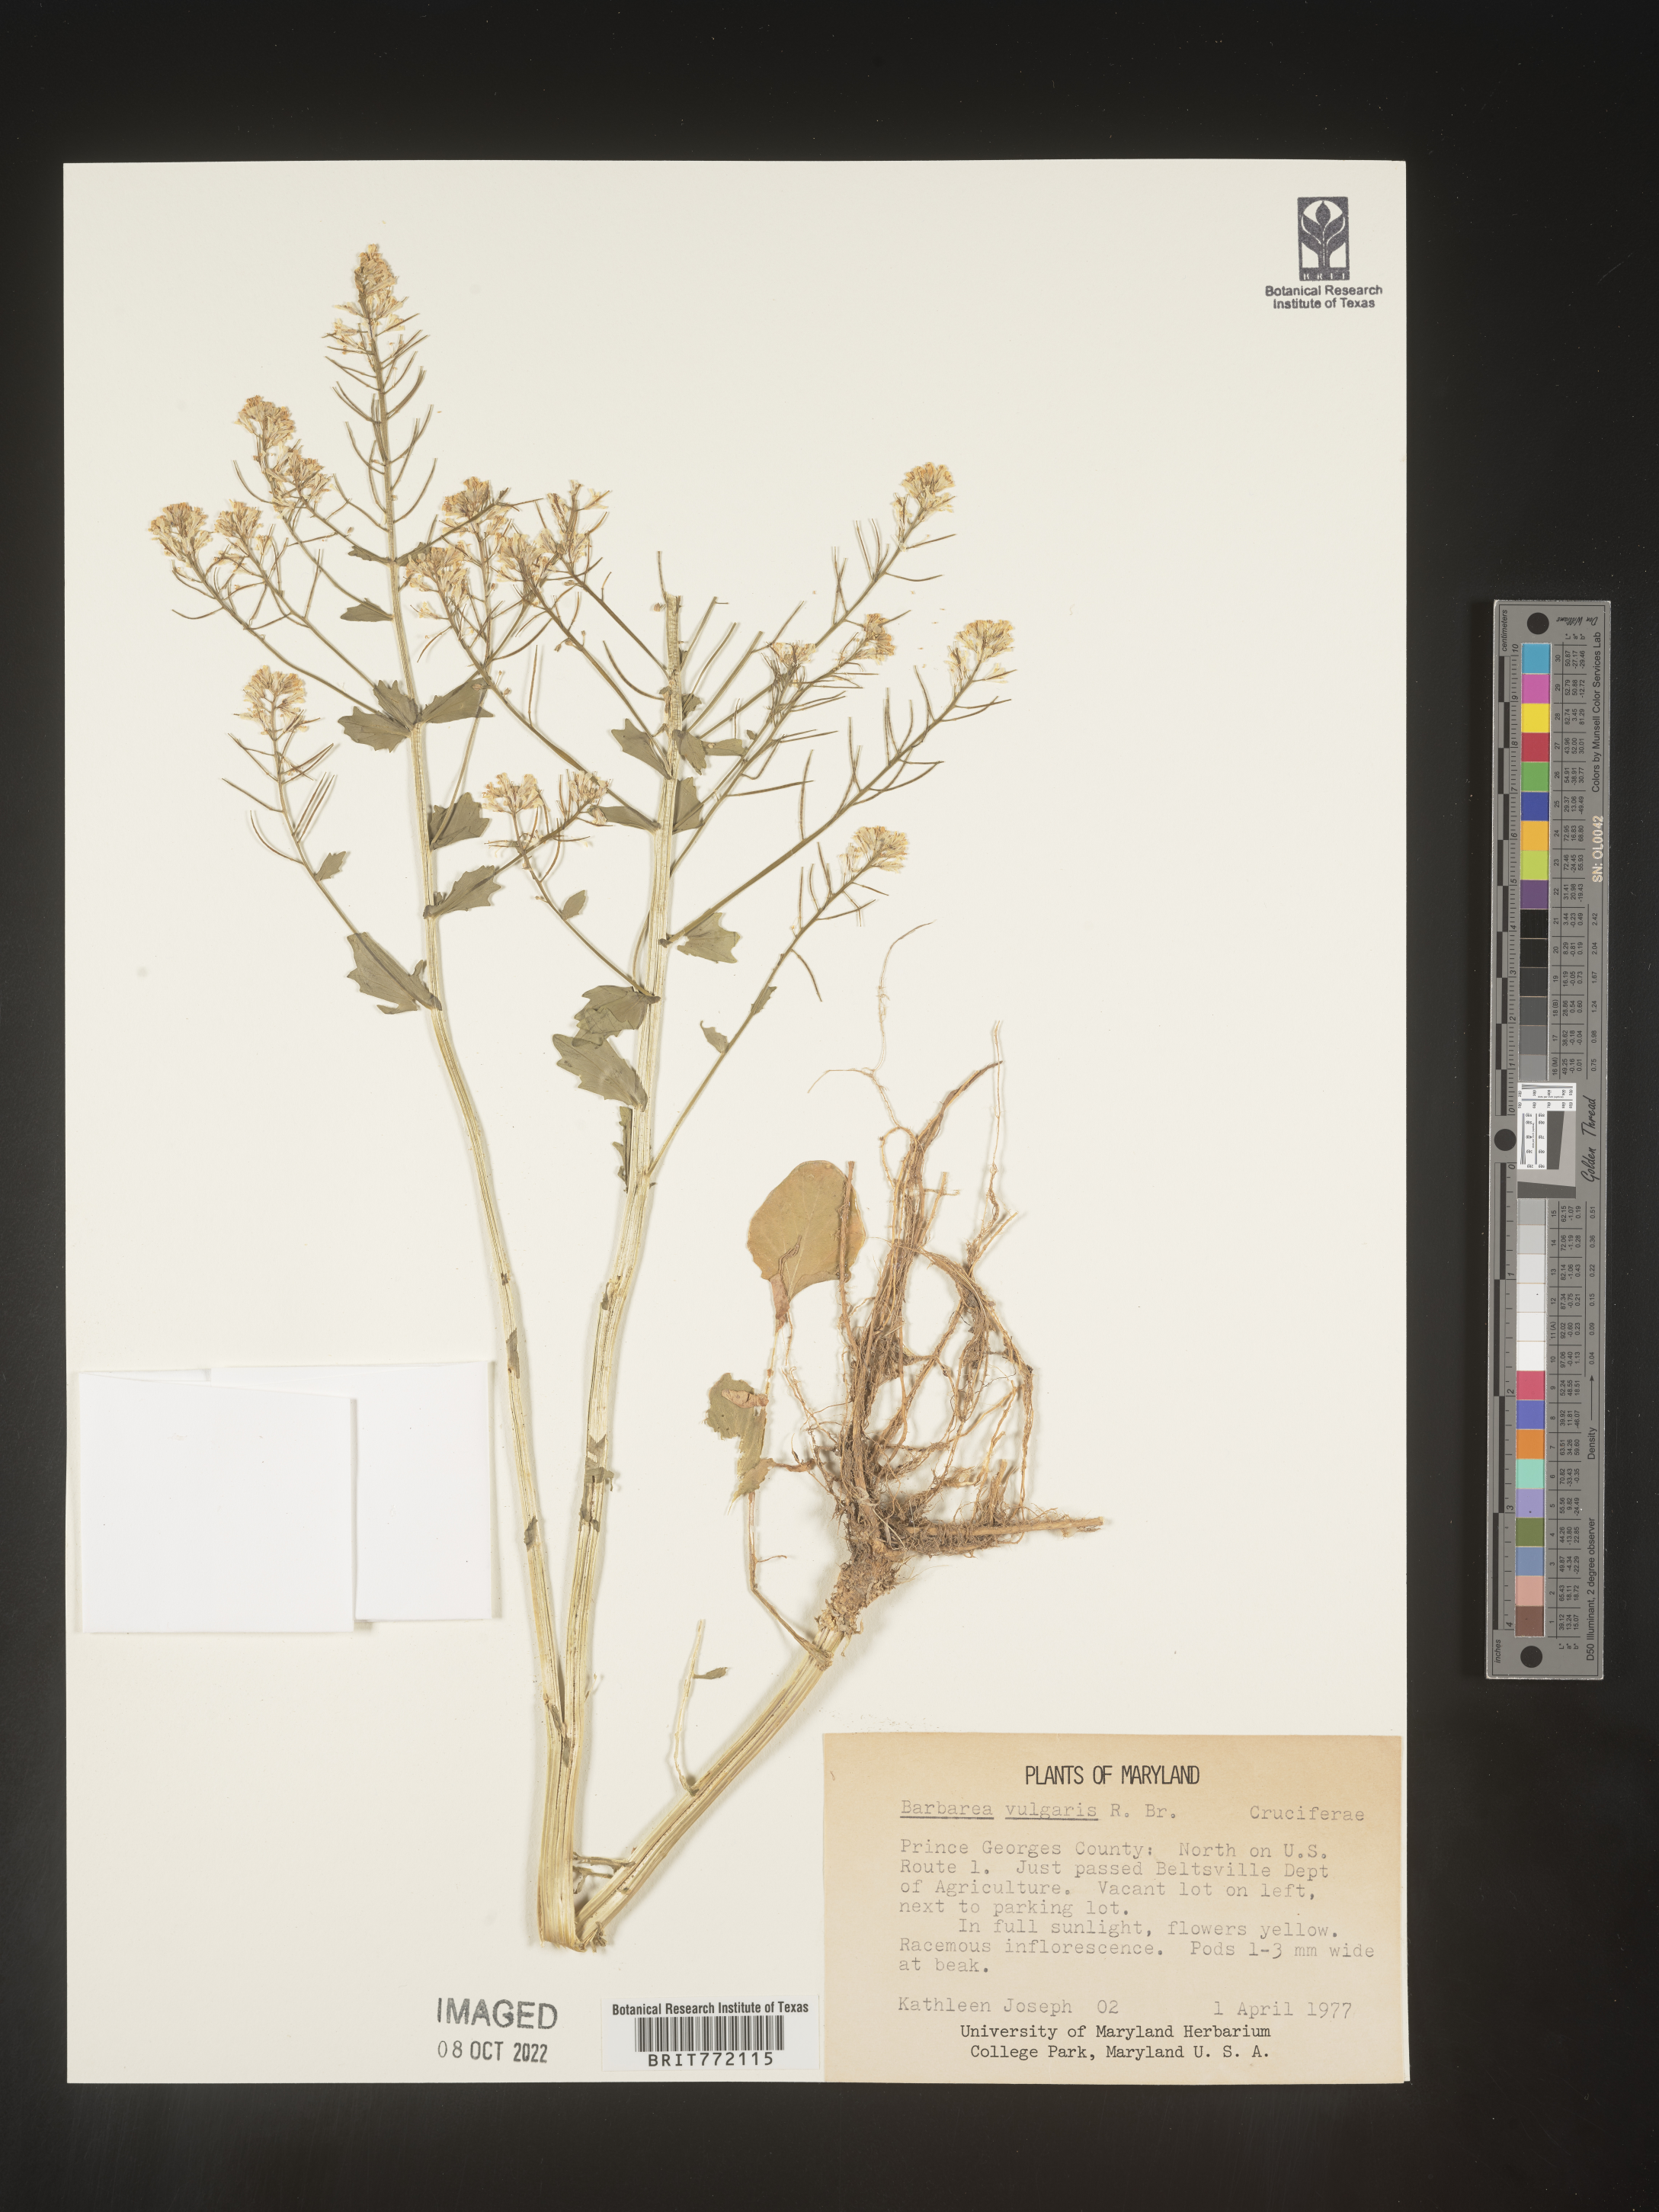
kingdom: Plantae
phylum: Tracheophyta
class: Magnoliopsida
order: Brassicales
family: Brassicaceae
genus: Barbarea
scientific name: Barbarea vulgaris
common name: Cressy-greens
